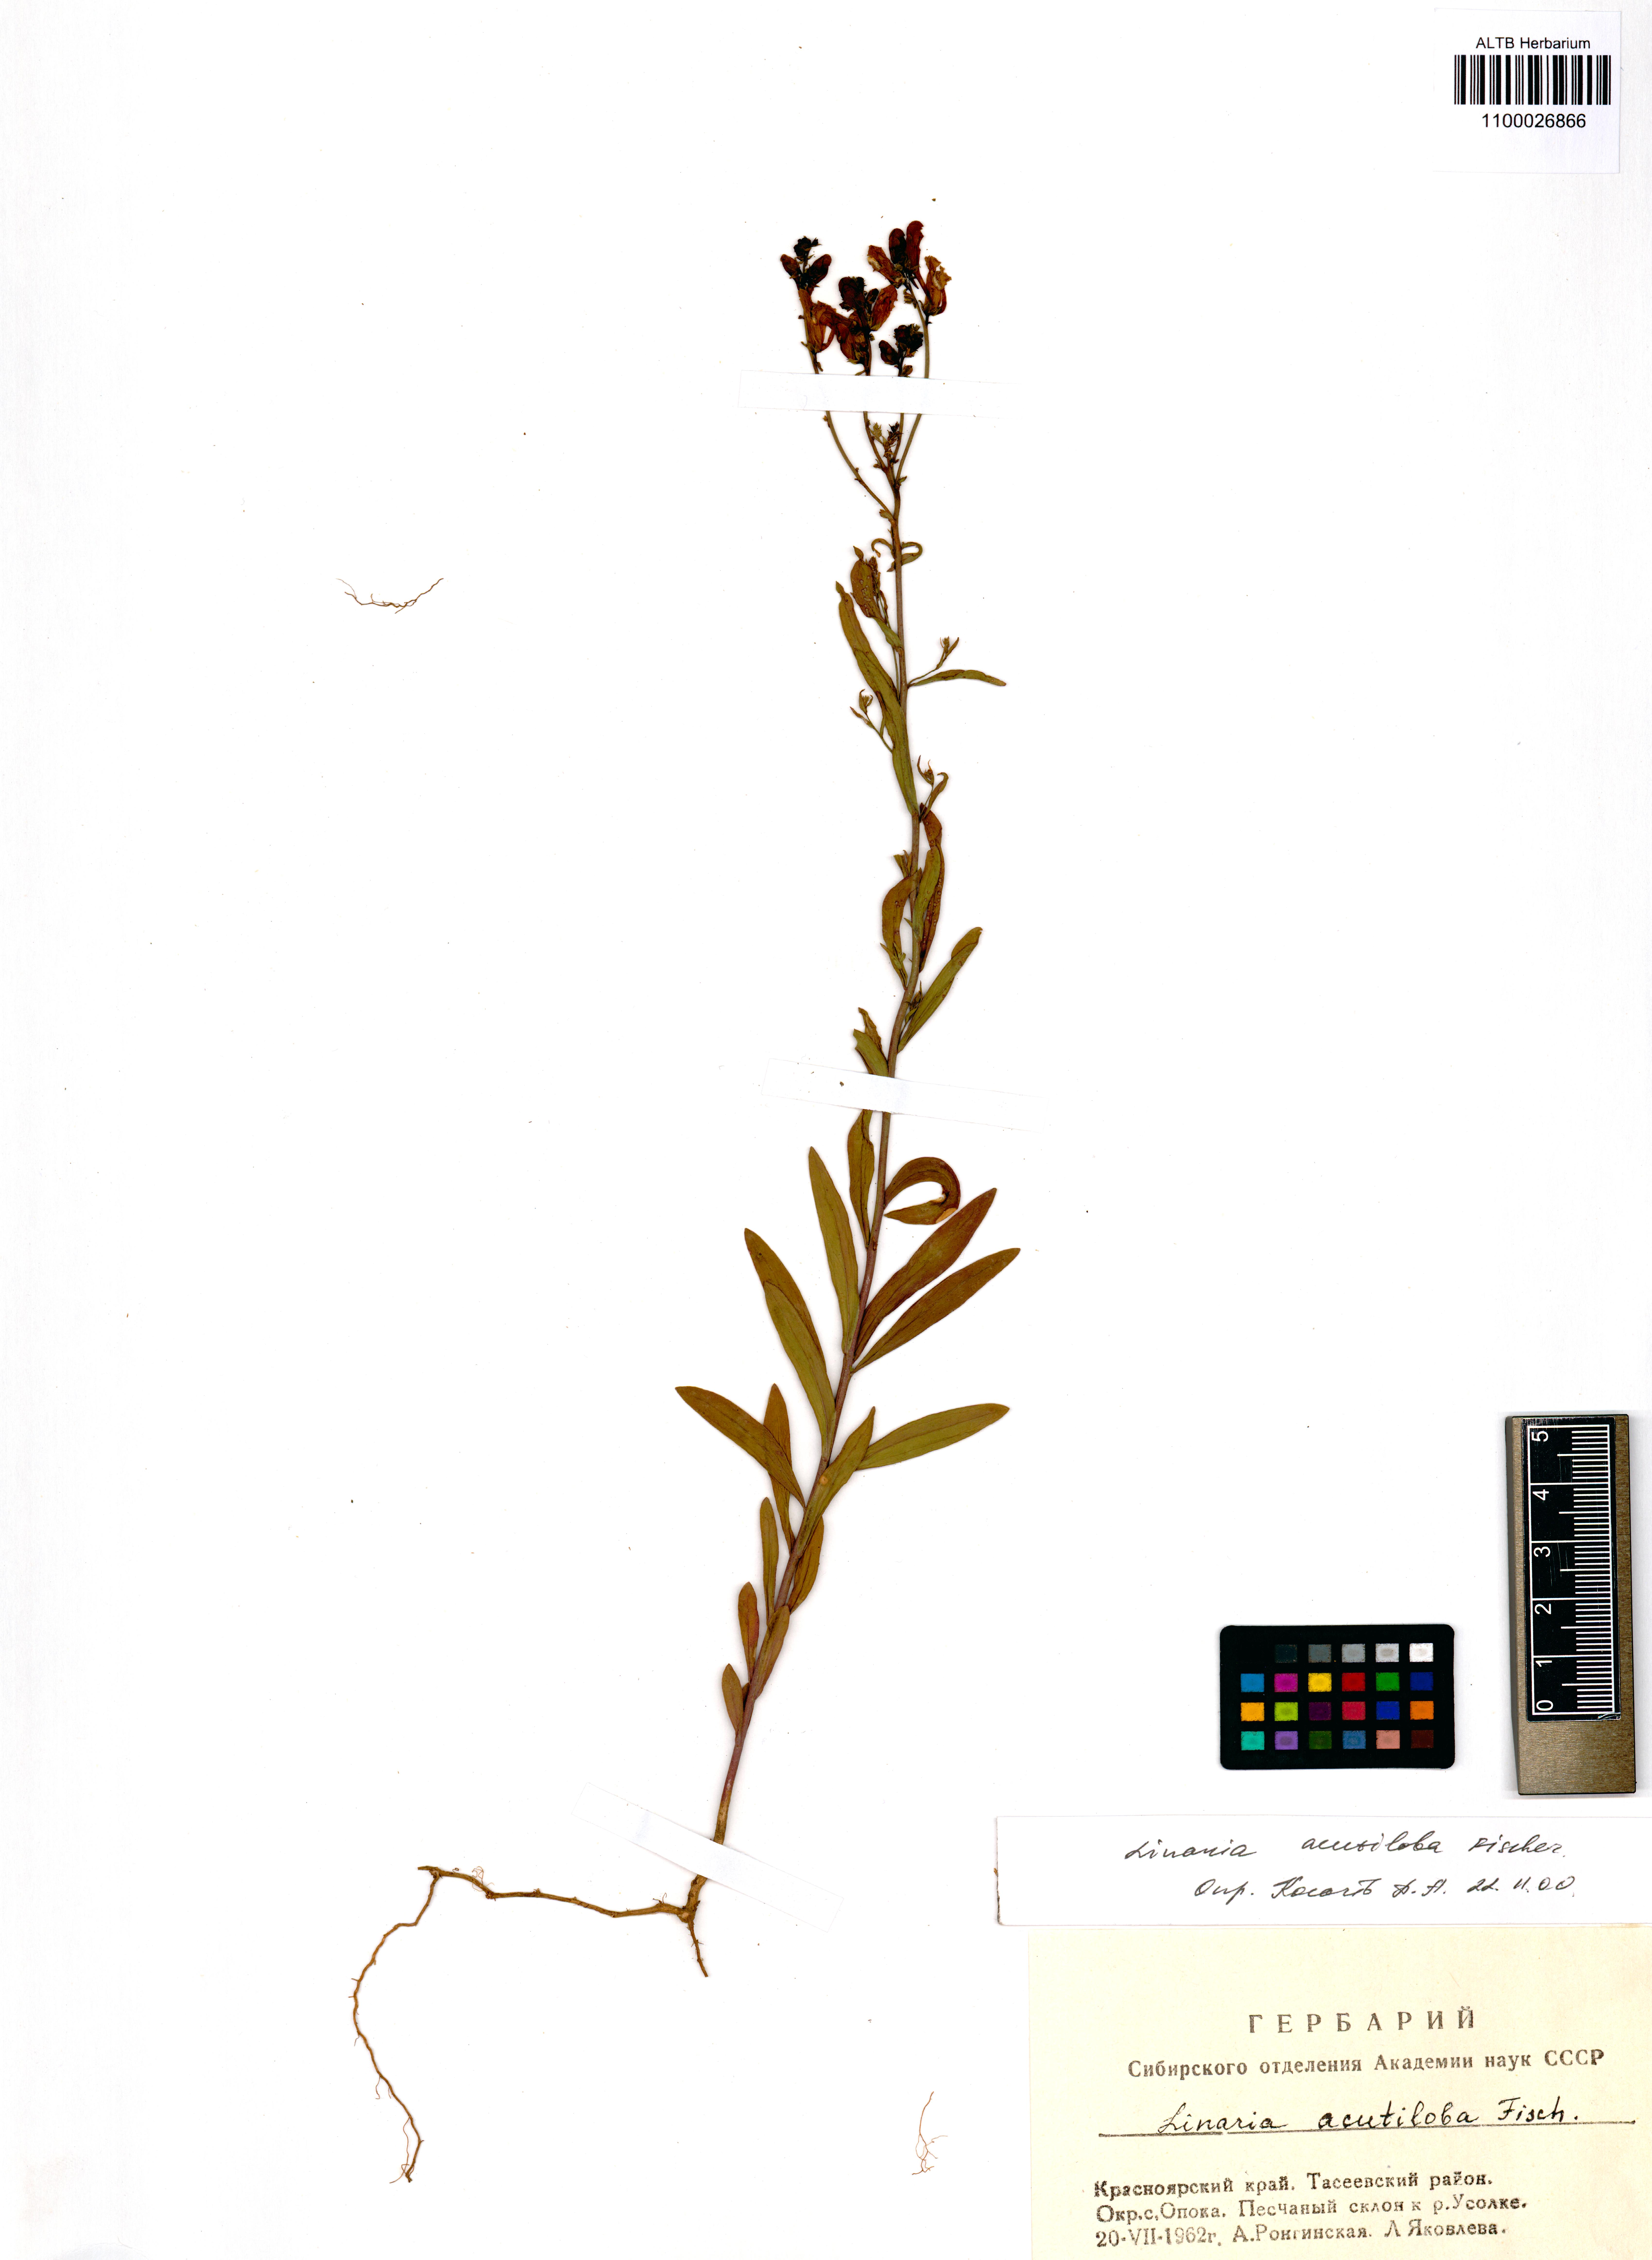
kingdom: Plantae
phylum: Tracheophyta
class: Magnoliopsida
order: Lamiales
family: Plantaginaceae
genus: Linaria
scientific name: Linaria acutiloba
